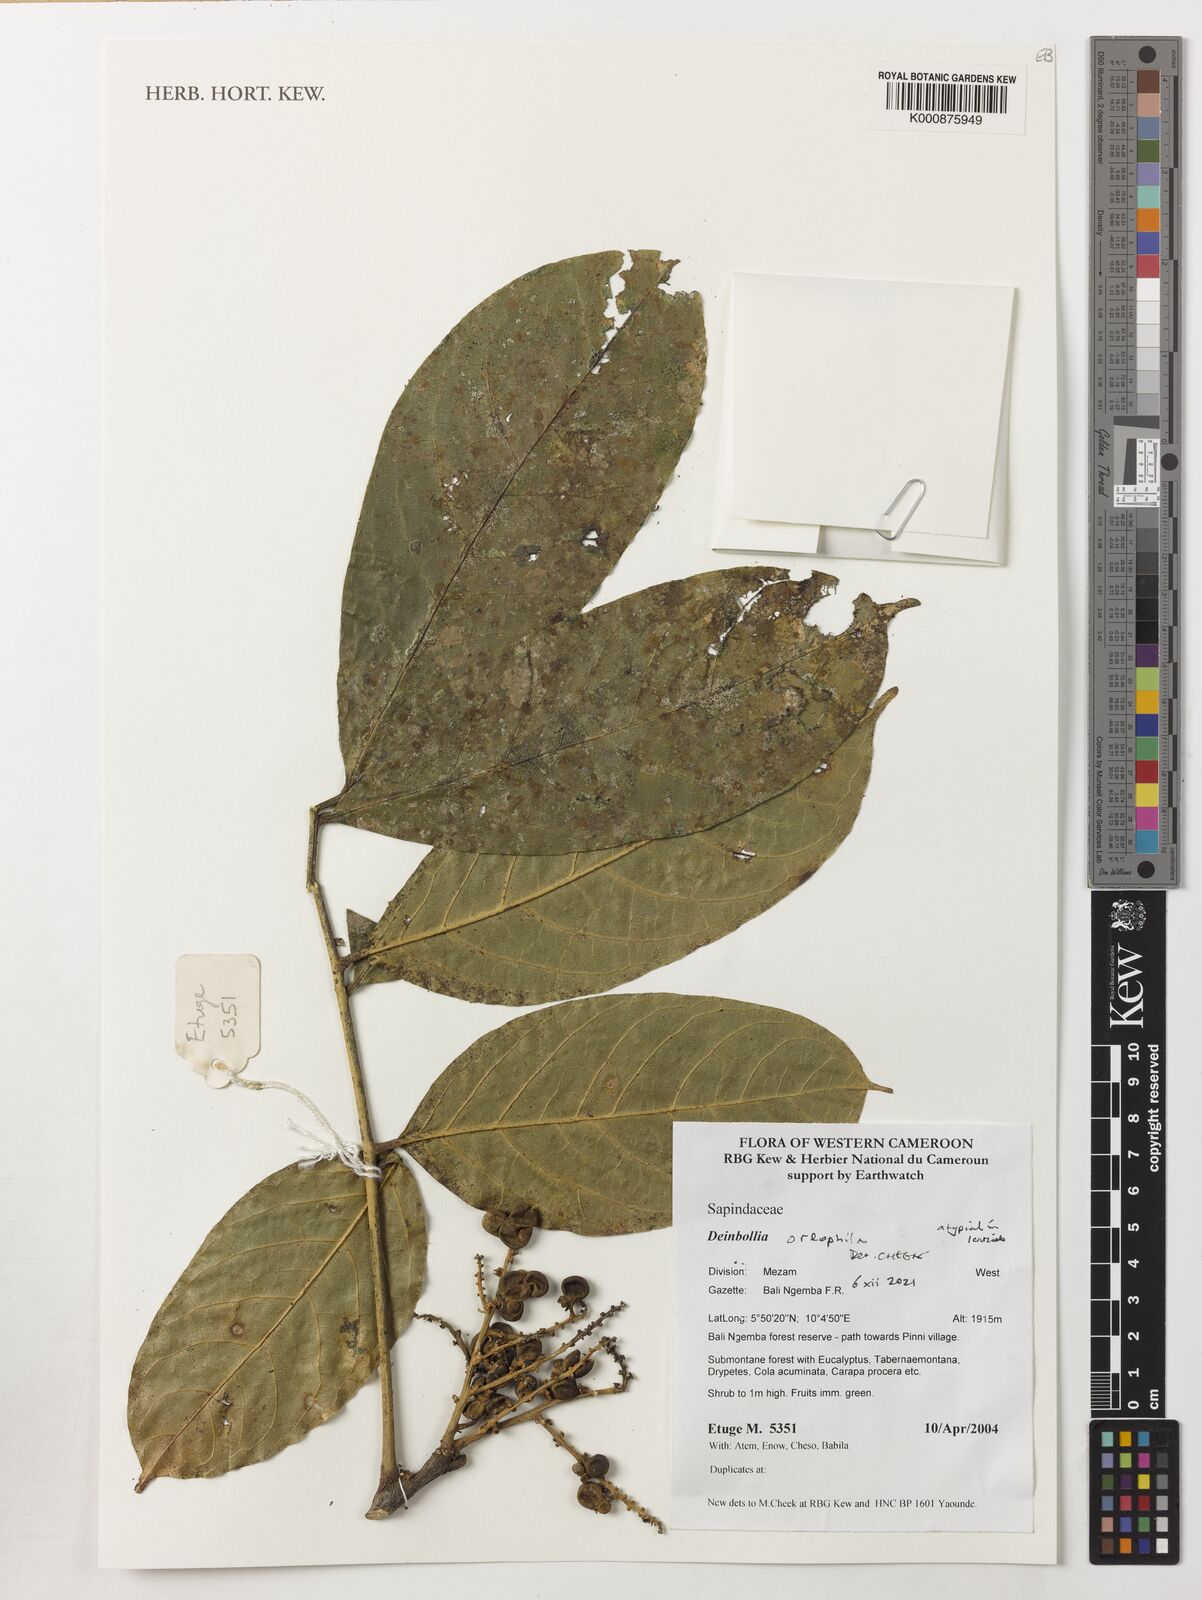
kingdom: Plantae
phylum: Tracheophyta
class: Magnoliopsida
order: Sapindales
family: Sapindaceae
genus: Deinbollia
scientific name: Deinbollia oreophila
